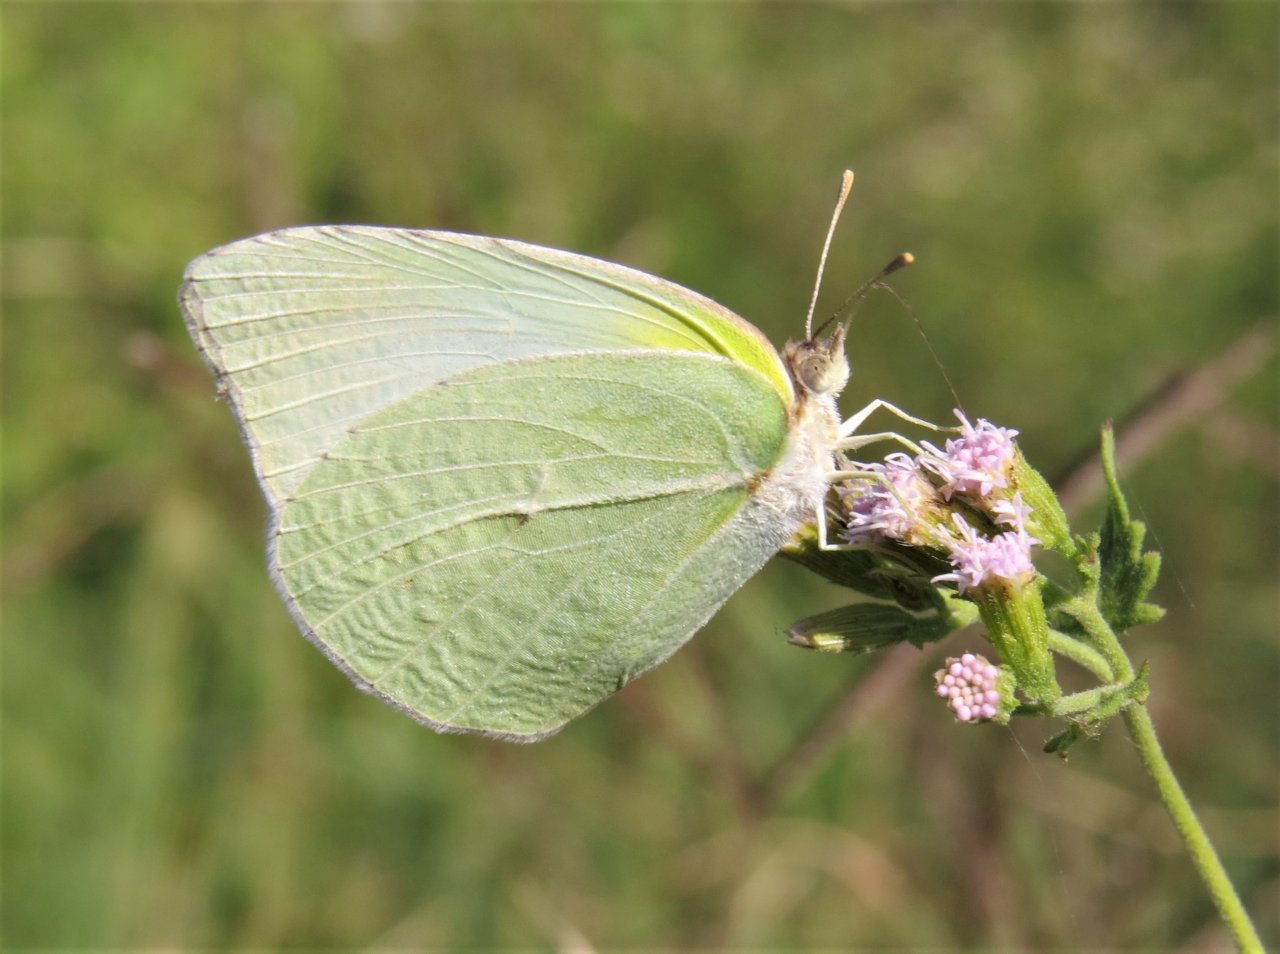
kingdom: Animalia
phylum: Arthropoda
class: Insecta
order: Lepidoptera
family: Pieridae
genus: Kricogonia
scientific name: Kricogonia lyside
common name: Lyside Sulphur
